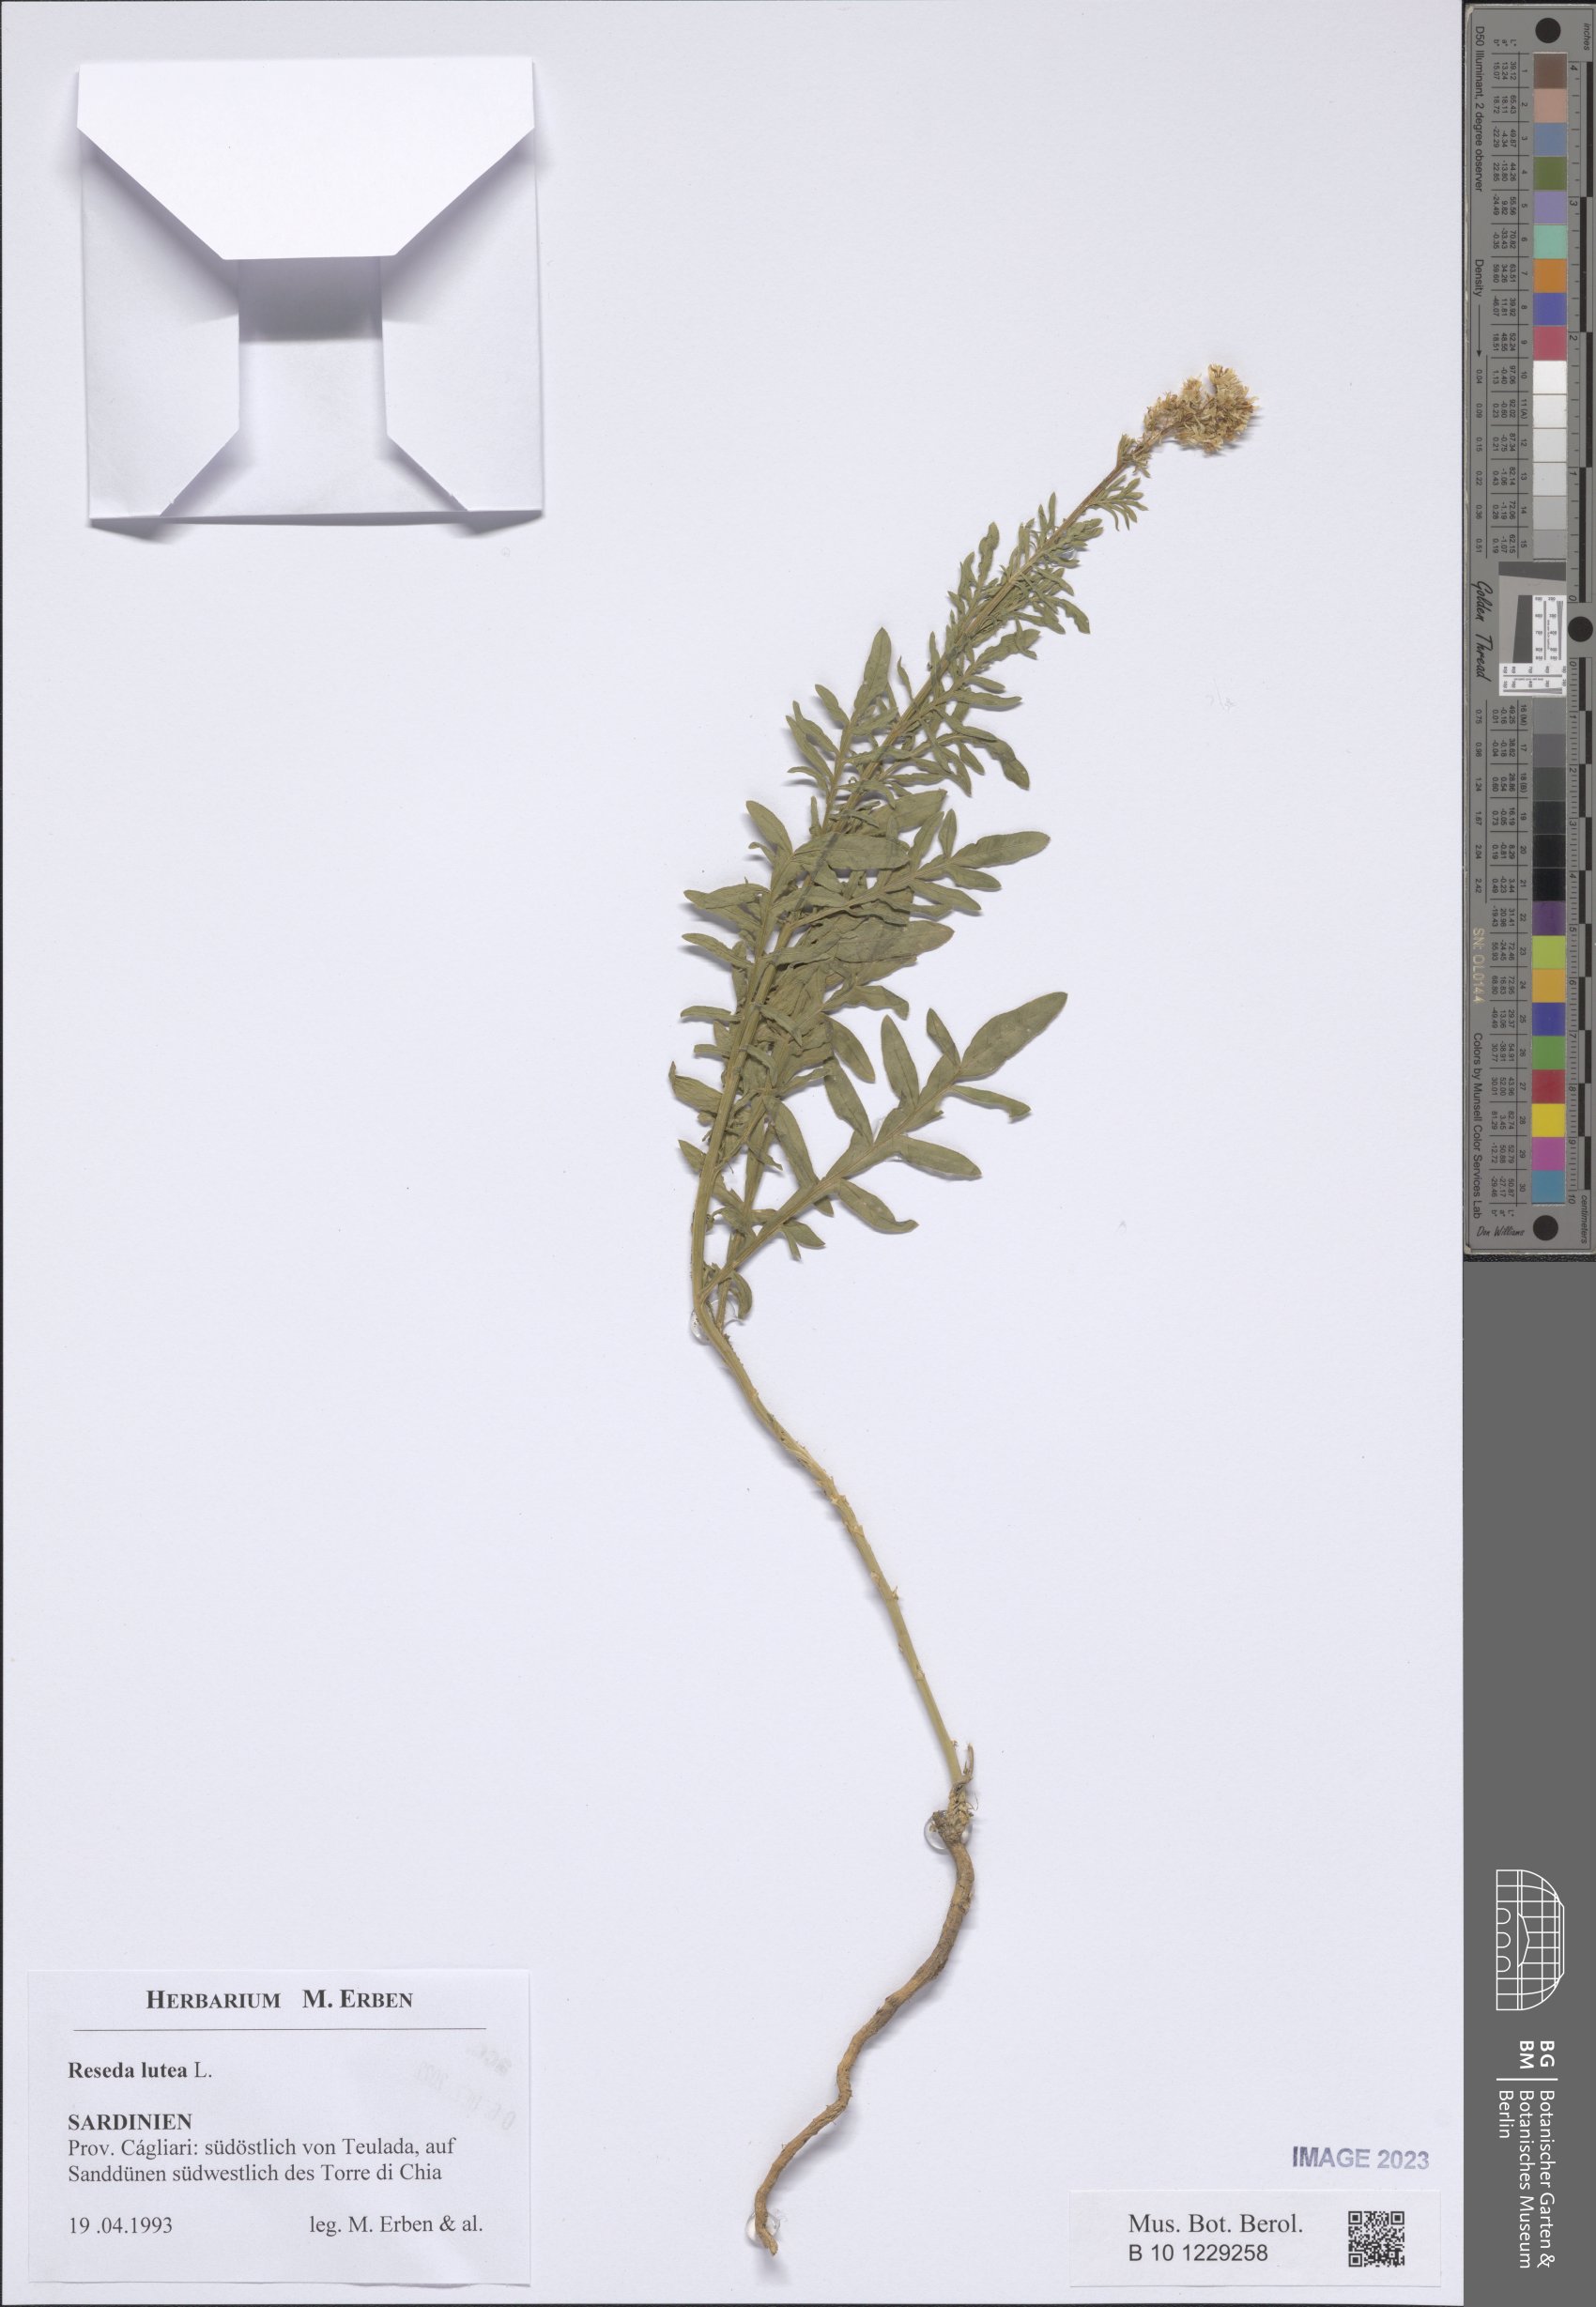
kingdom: Plantae
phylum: Tracheophyta
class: Magnoliopsida
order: Brassicales
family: Resedaceae
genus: Reseda
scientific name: Reseda lutea
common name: Wild mignonette
